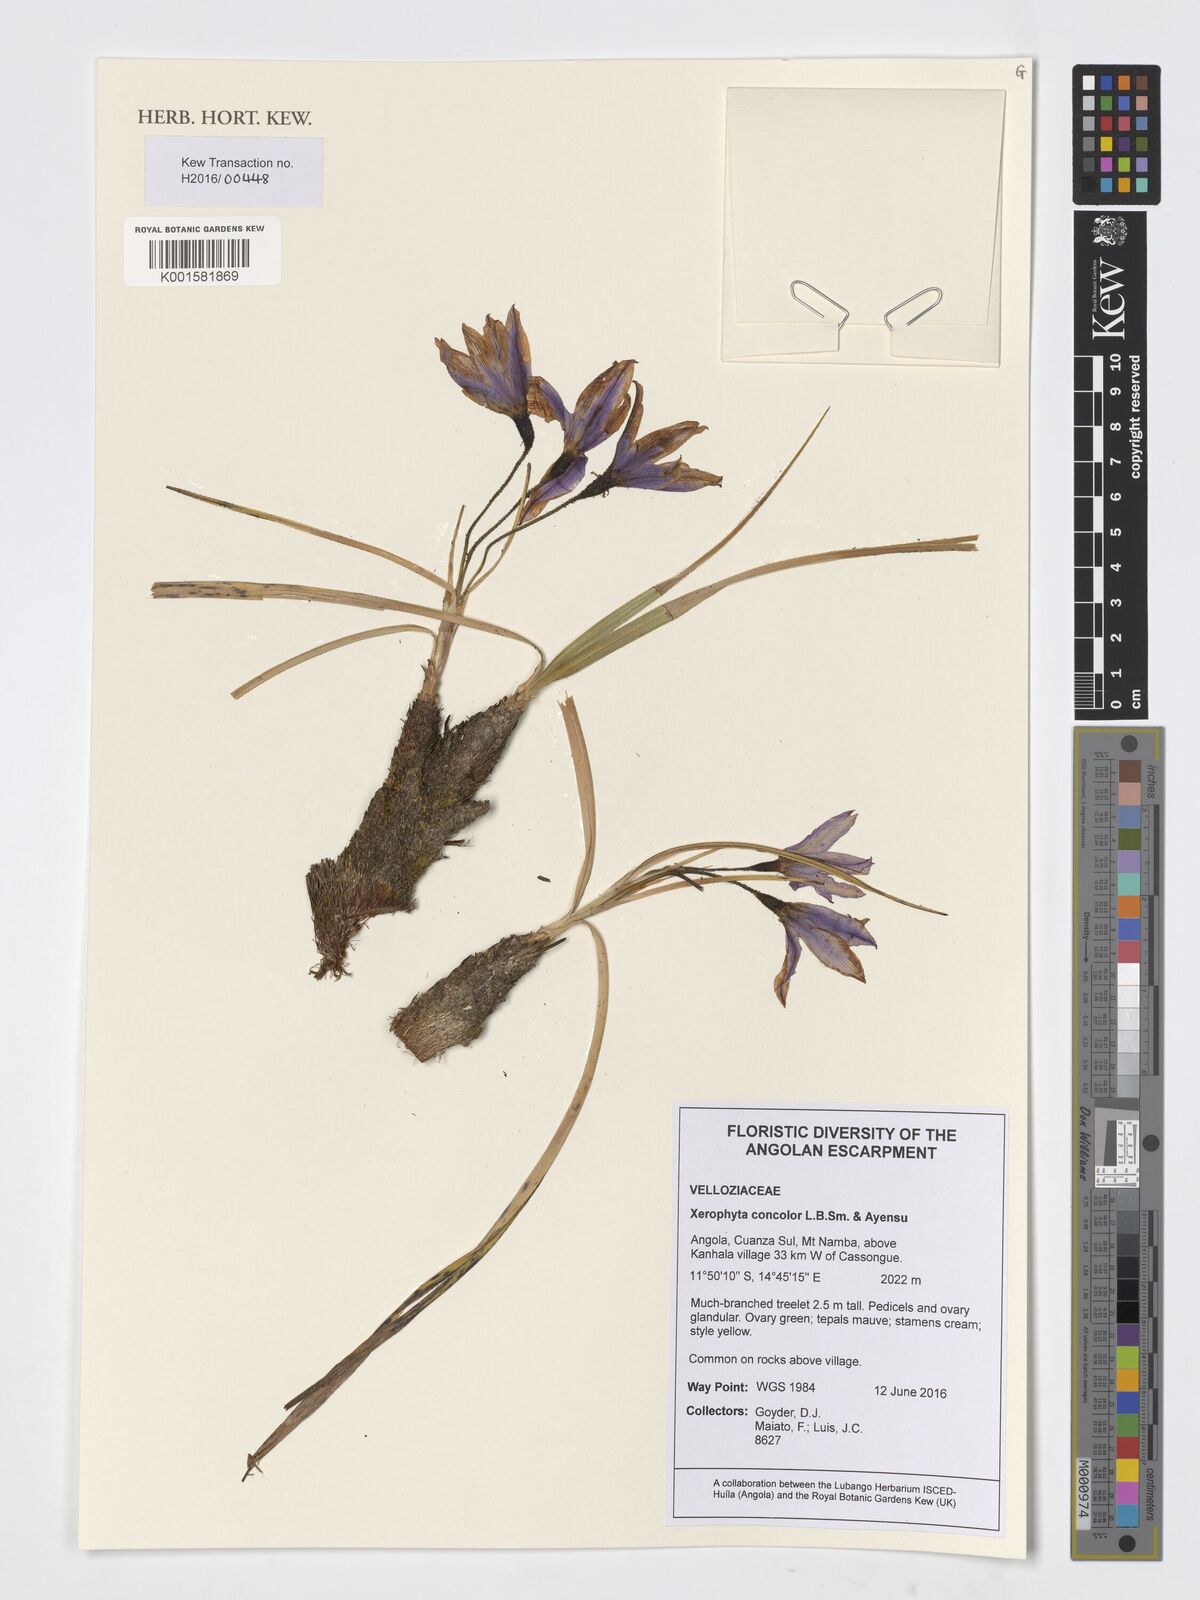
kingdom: Plantae
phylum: Tracheophyta
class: Liliopsida
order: Pandanales
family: Velloziaceae
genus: Xerophyta
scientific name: Xerophyta concolor
